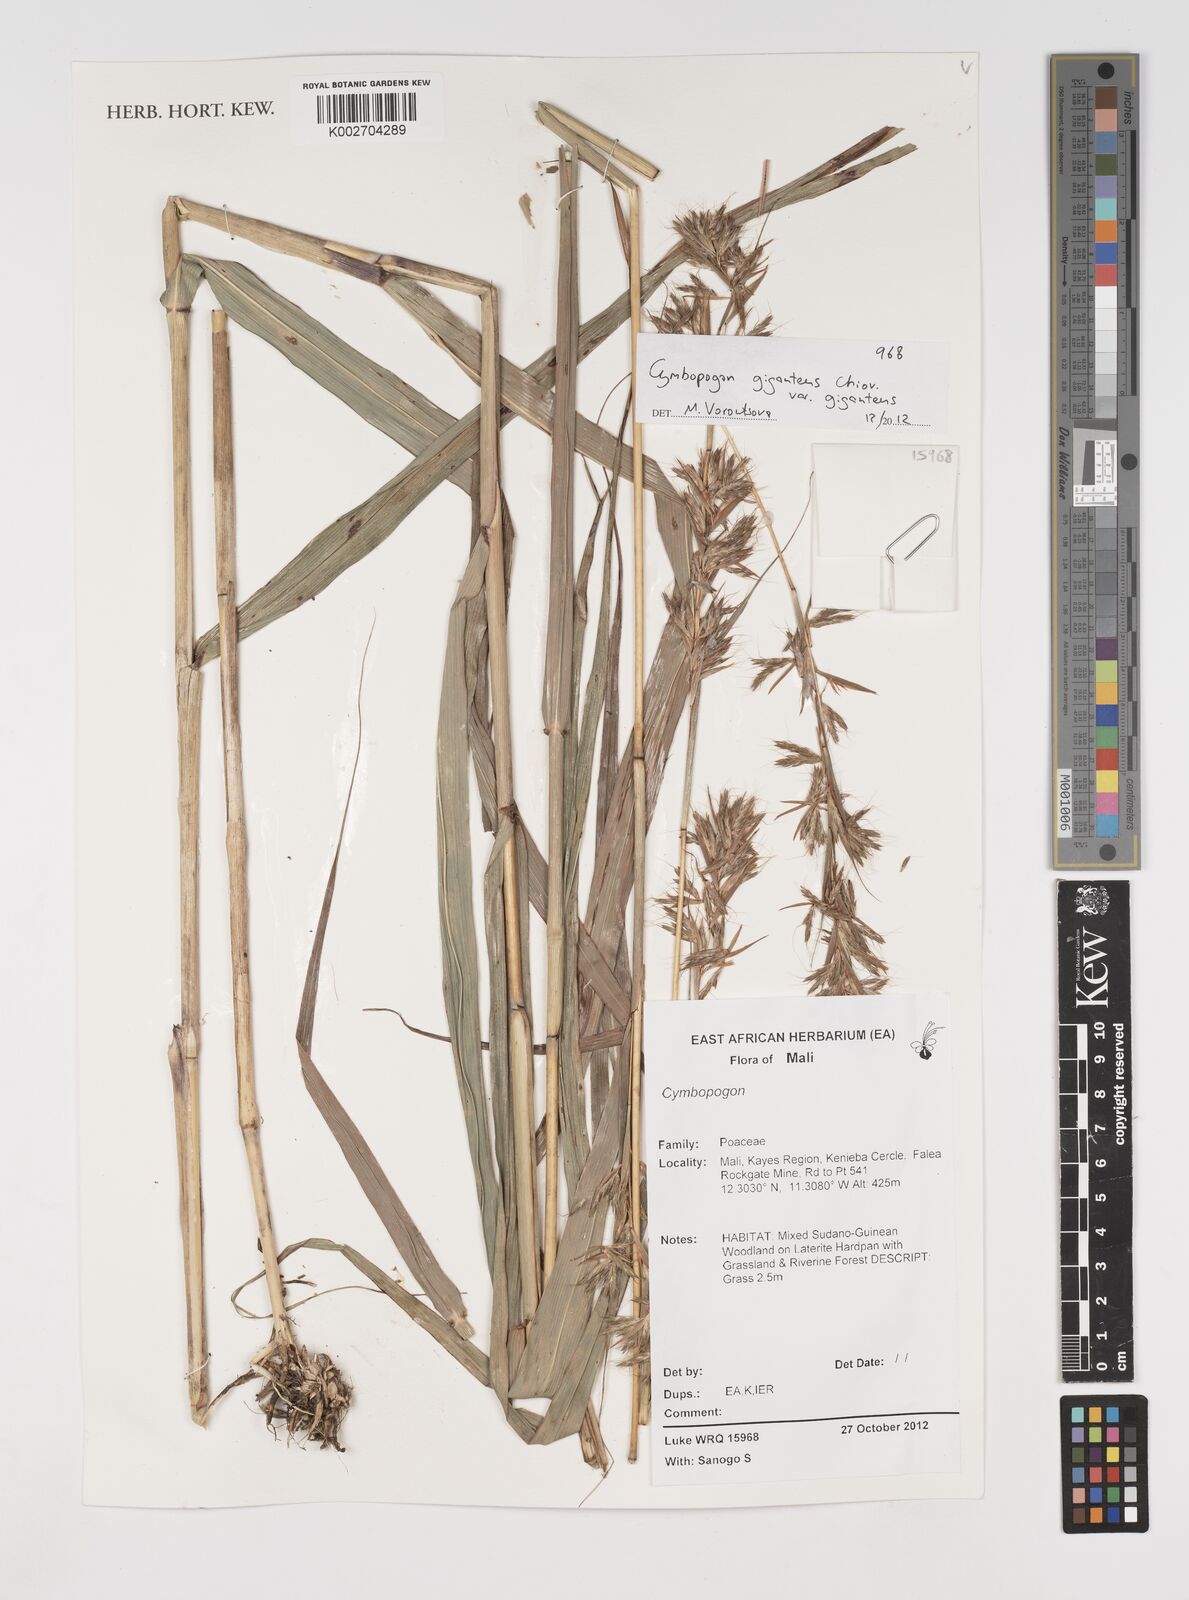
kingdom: Plantae
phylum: Tracheophyta
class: Liliopsida
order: Poales
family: Poaceae
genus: Cymbopogon
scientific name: Cymbopogon giganteus
